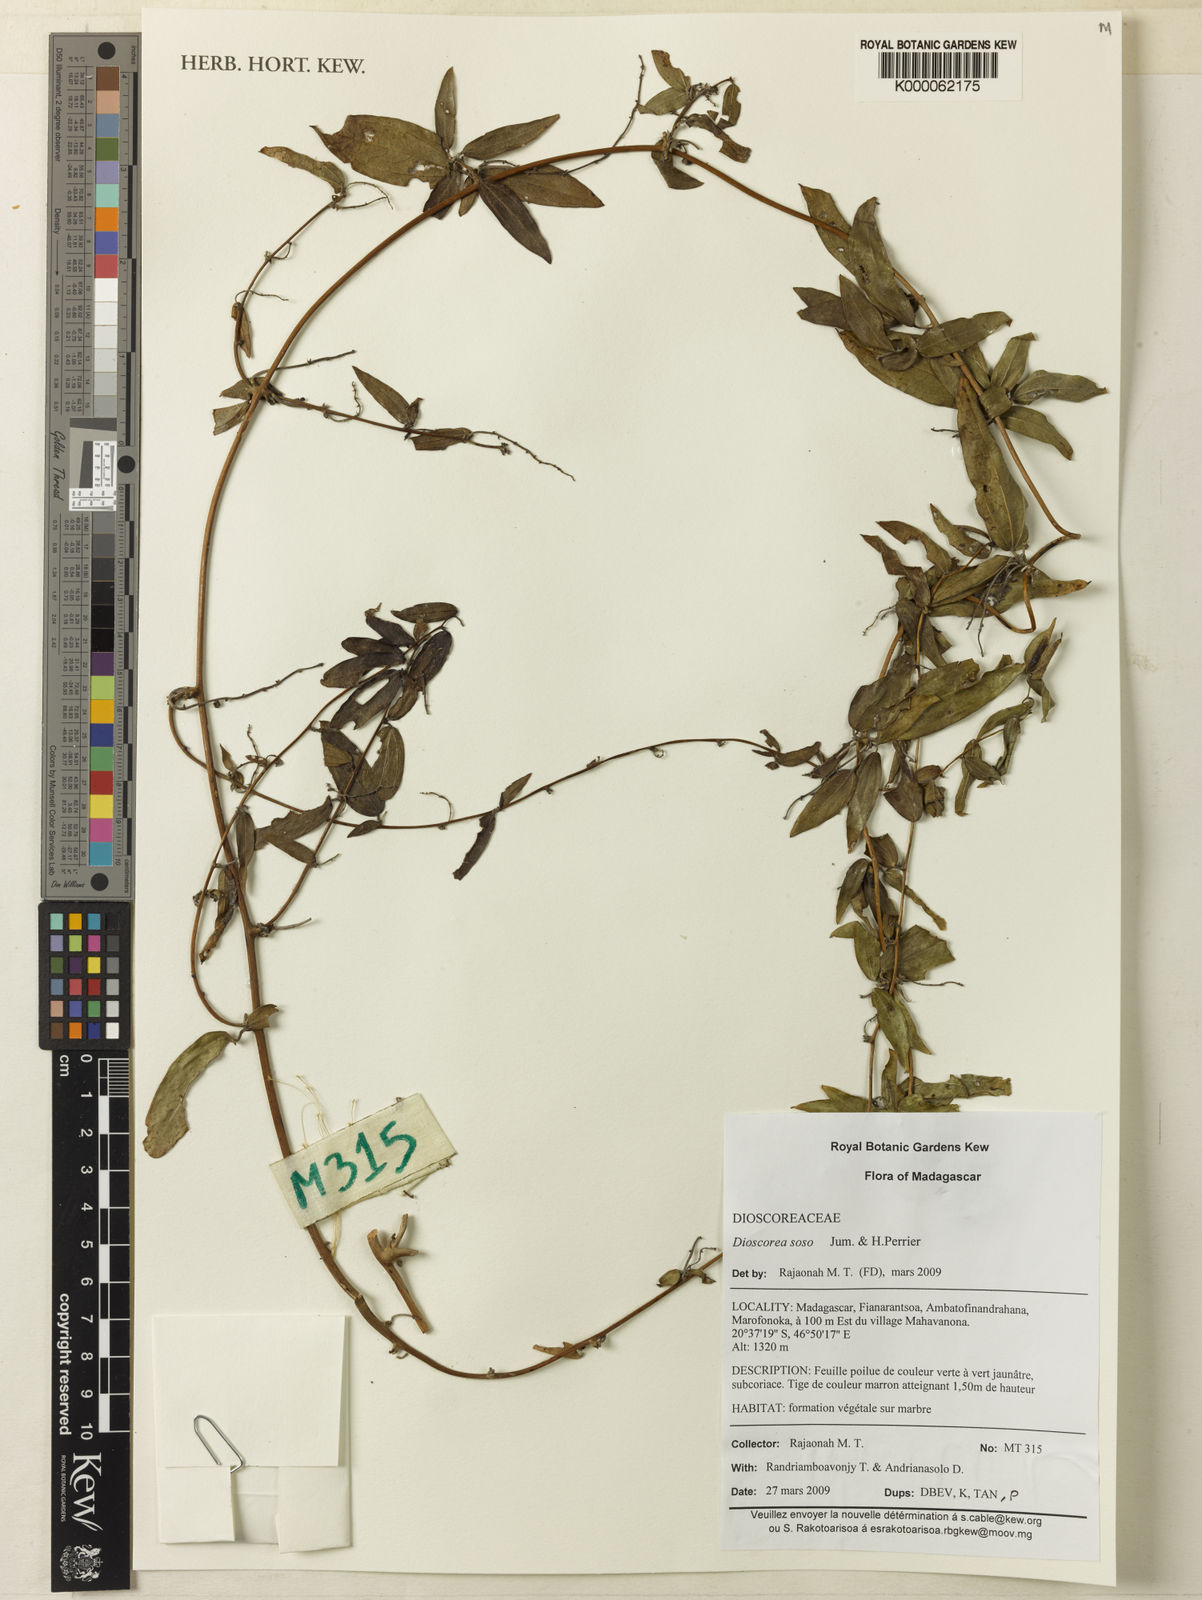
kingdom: Plantae
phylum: Tracheophyta
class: Liliopsida
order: Dioscoreales
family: Dioscoreaceae
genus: Dioscorea
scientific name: Dioscorea soso
